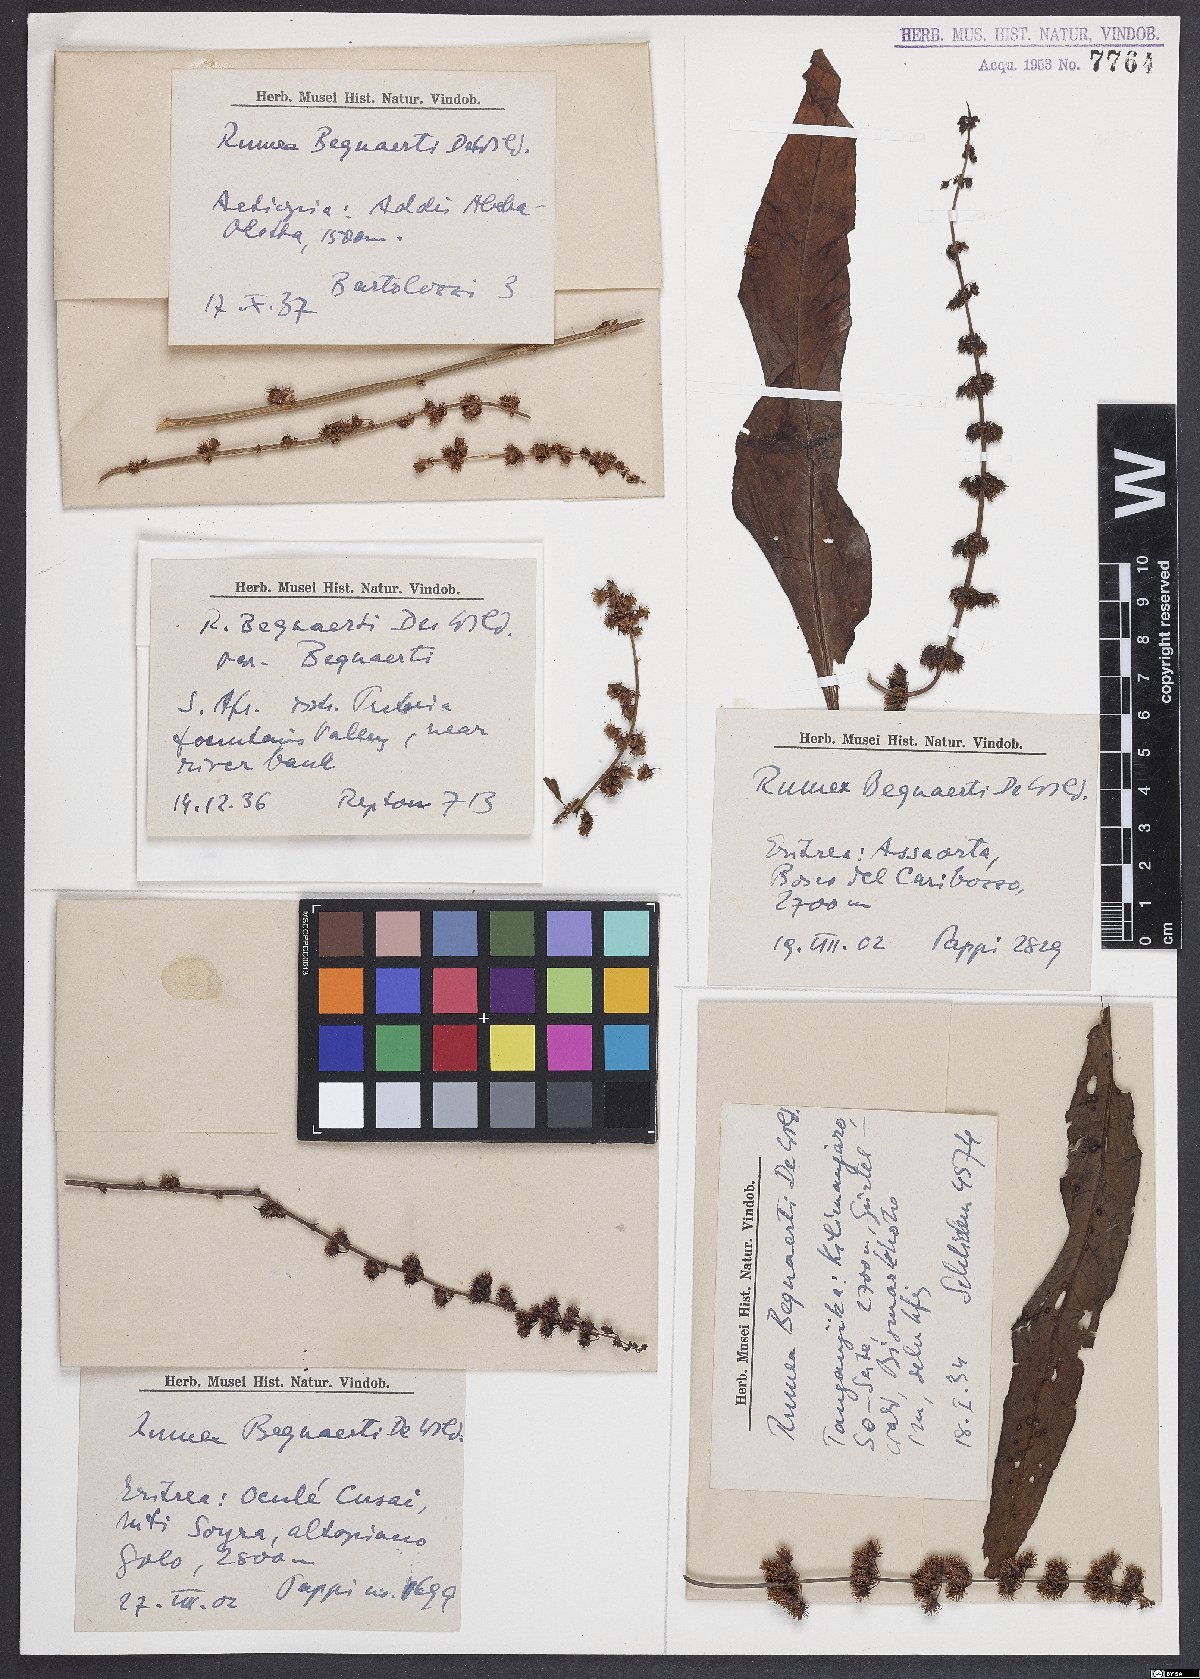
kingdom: Plantae
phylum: Tracheophyta
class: Magnoliopsida
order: Caryophyllales
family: Polygonaceae
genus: Rumex
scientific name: Rumex bequaertii
